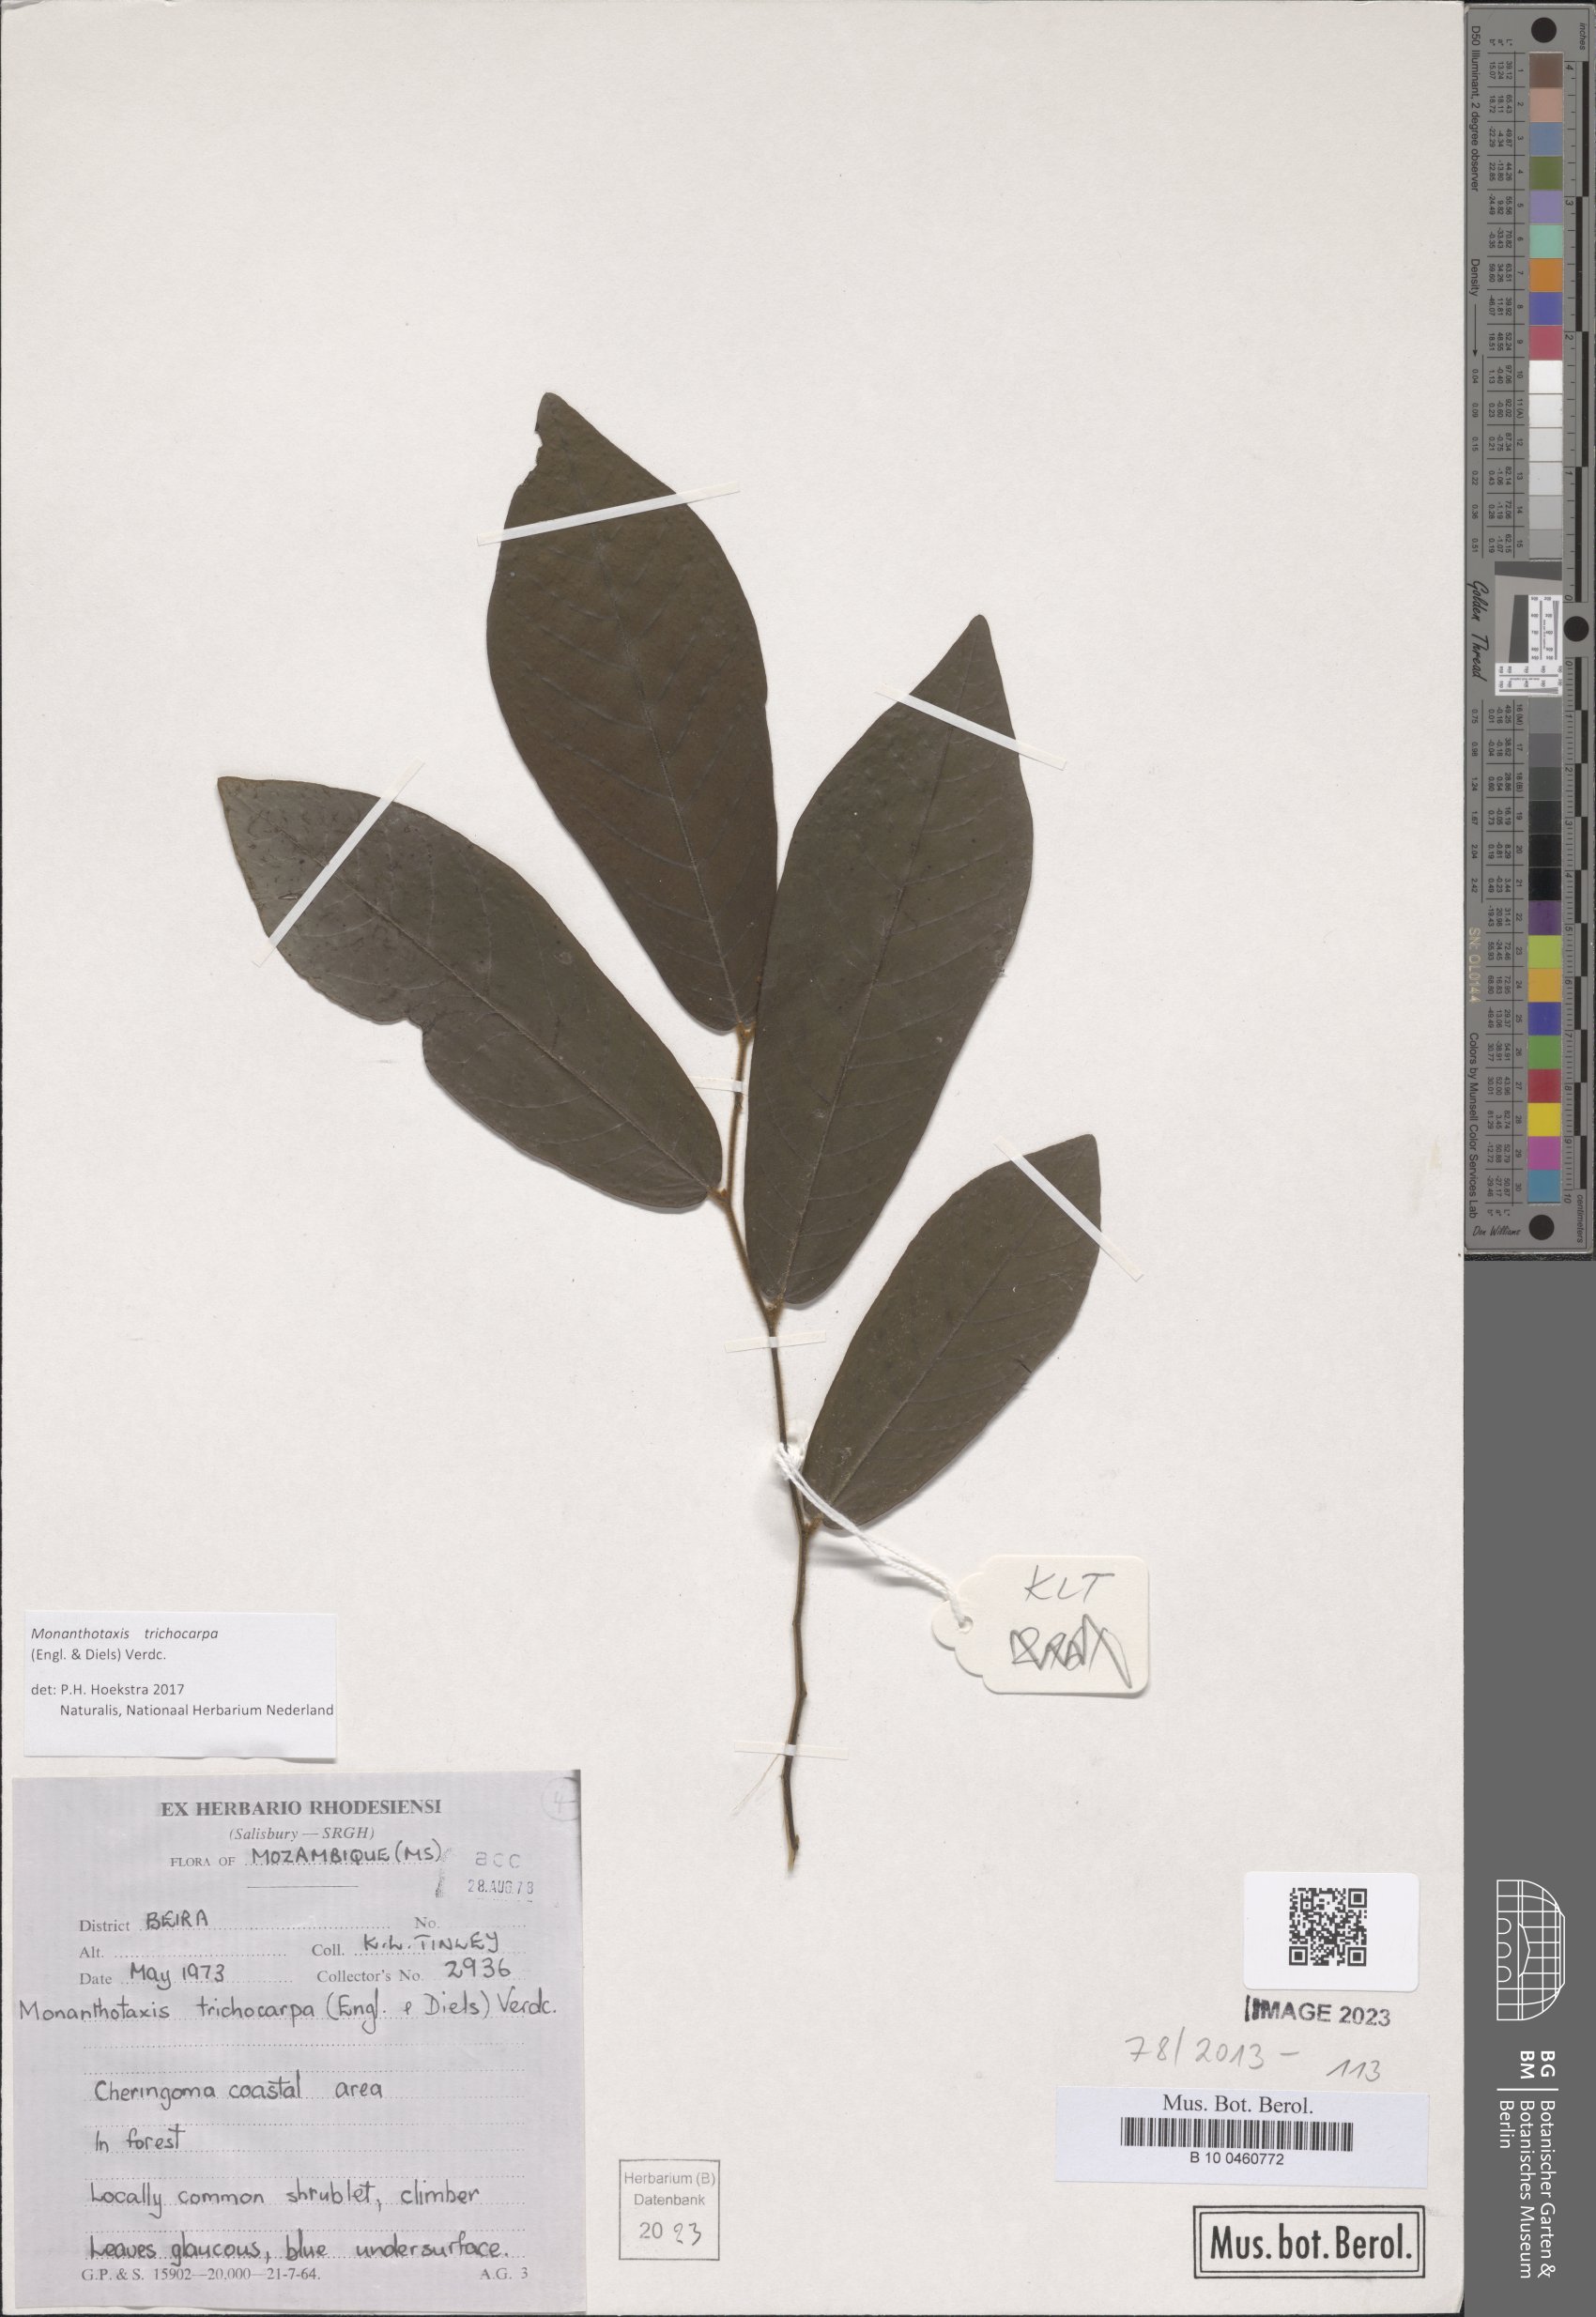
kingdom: Plantae
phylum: Tracheophyta
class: Magnoliopsida
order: Magnoliales
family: Annonaceae
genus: Monanthotaxis
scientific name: Monanthotaxis trichocarpa
